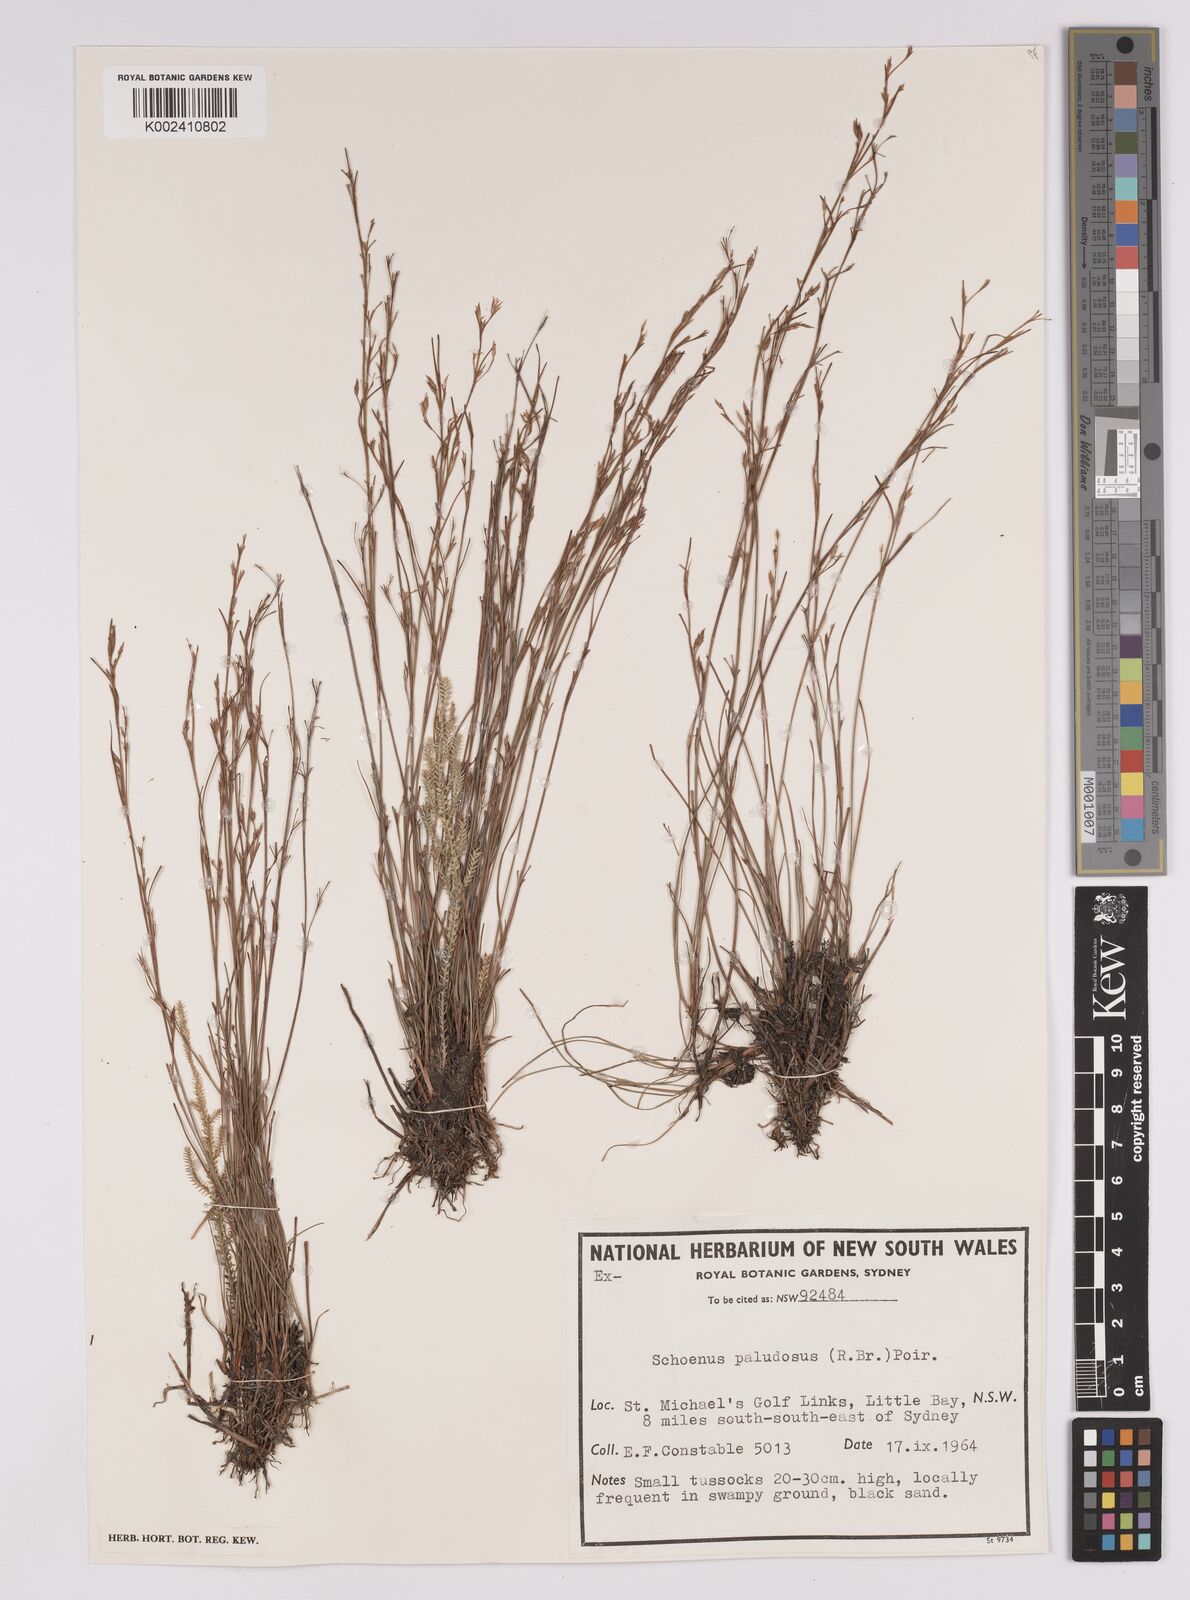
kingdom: Plantae
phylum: Tracheophyta
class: Liliopsida
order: Poales
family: Cyperaceae
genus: Anthelepis
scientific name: Anthelepis paludosa
